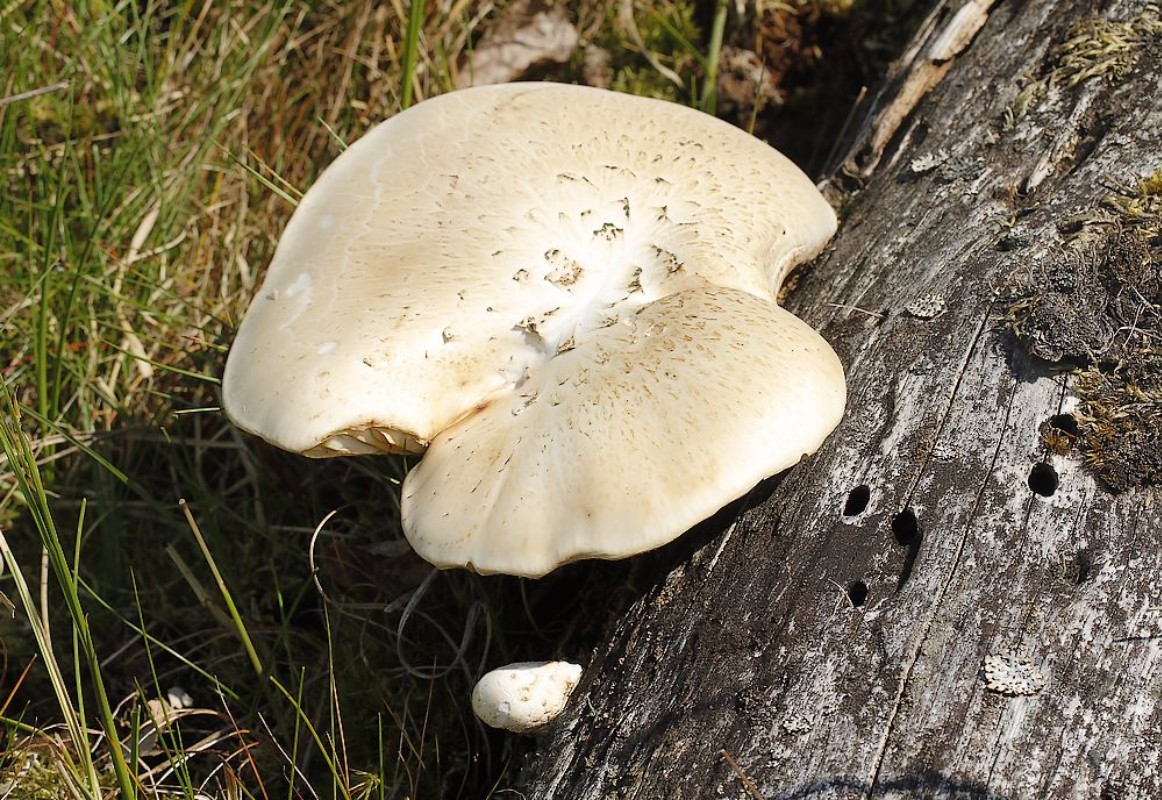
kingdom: Fungi
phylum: Basidiomycota
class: Agaricomycetes
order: Gloeophyllales
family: Gloeophyllaceae
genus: Neolentinus
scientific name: Neolentinus lepideus
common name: skællet sejhat
